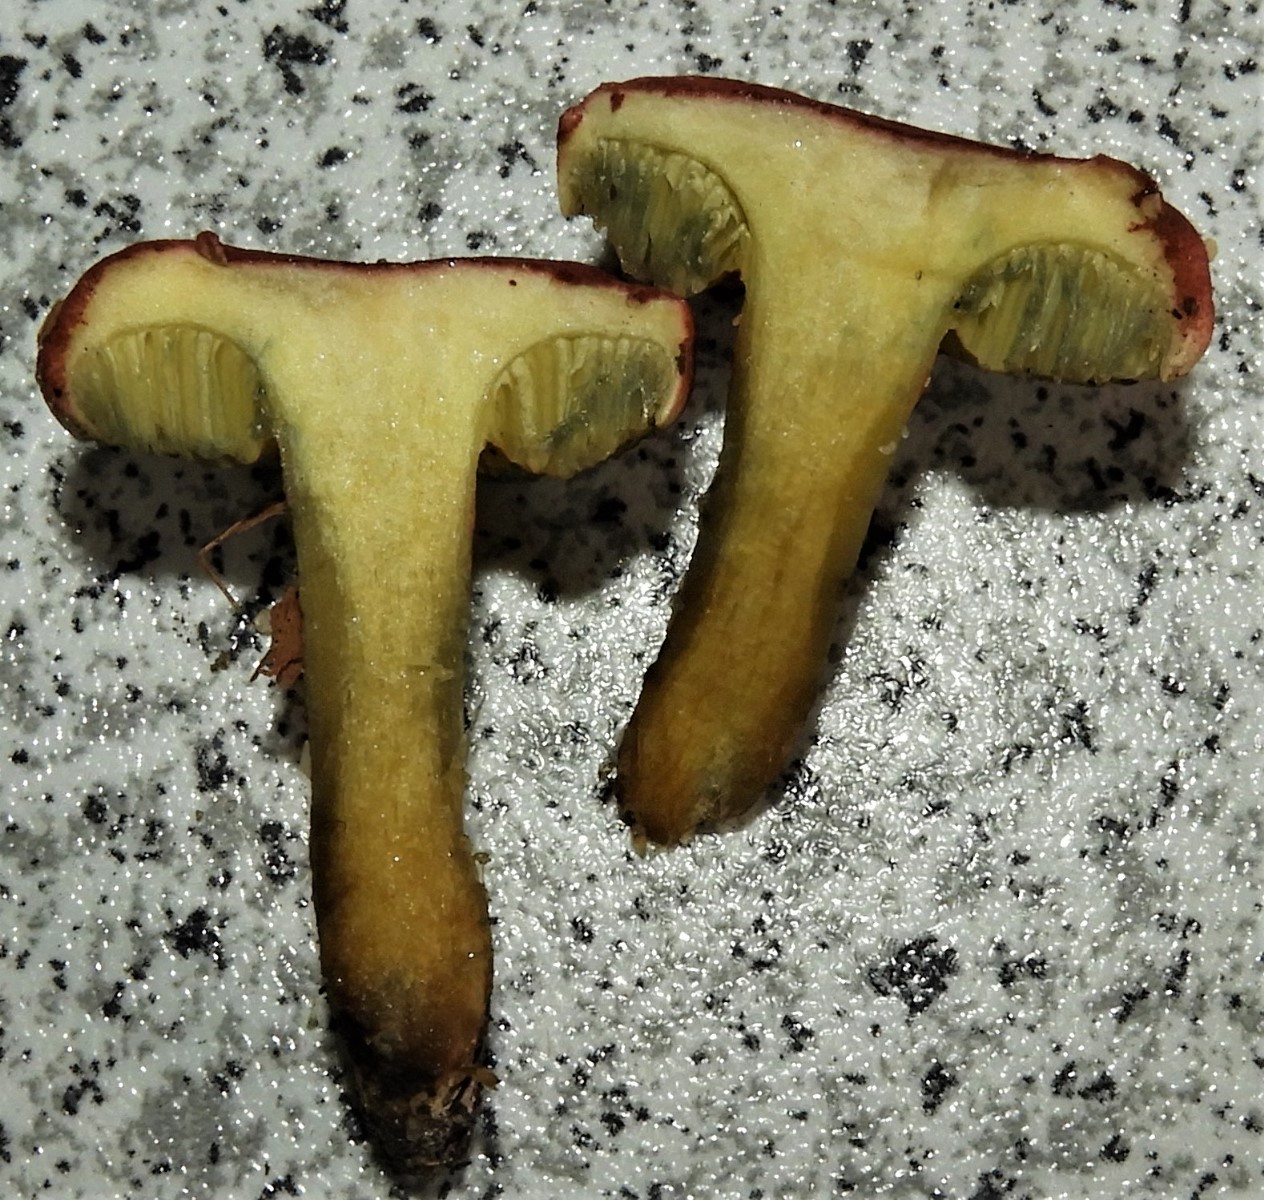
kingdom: Fungi
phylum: Basidiomycota
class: Agaricomycetes
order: Boletales
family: Boletaceae
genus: Hortiboletus
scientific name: Hortiboletus rubellus
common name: blodrød rørhat
